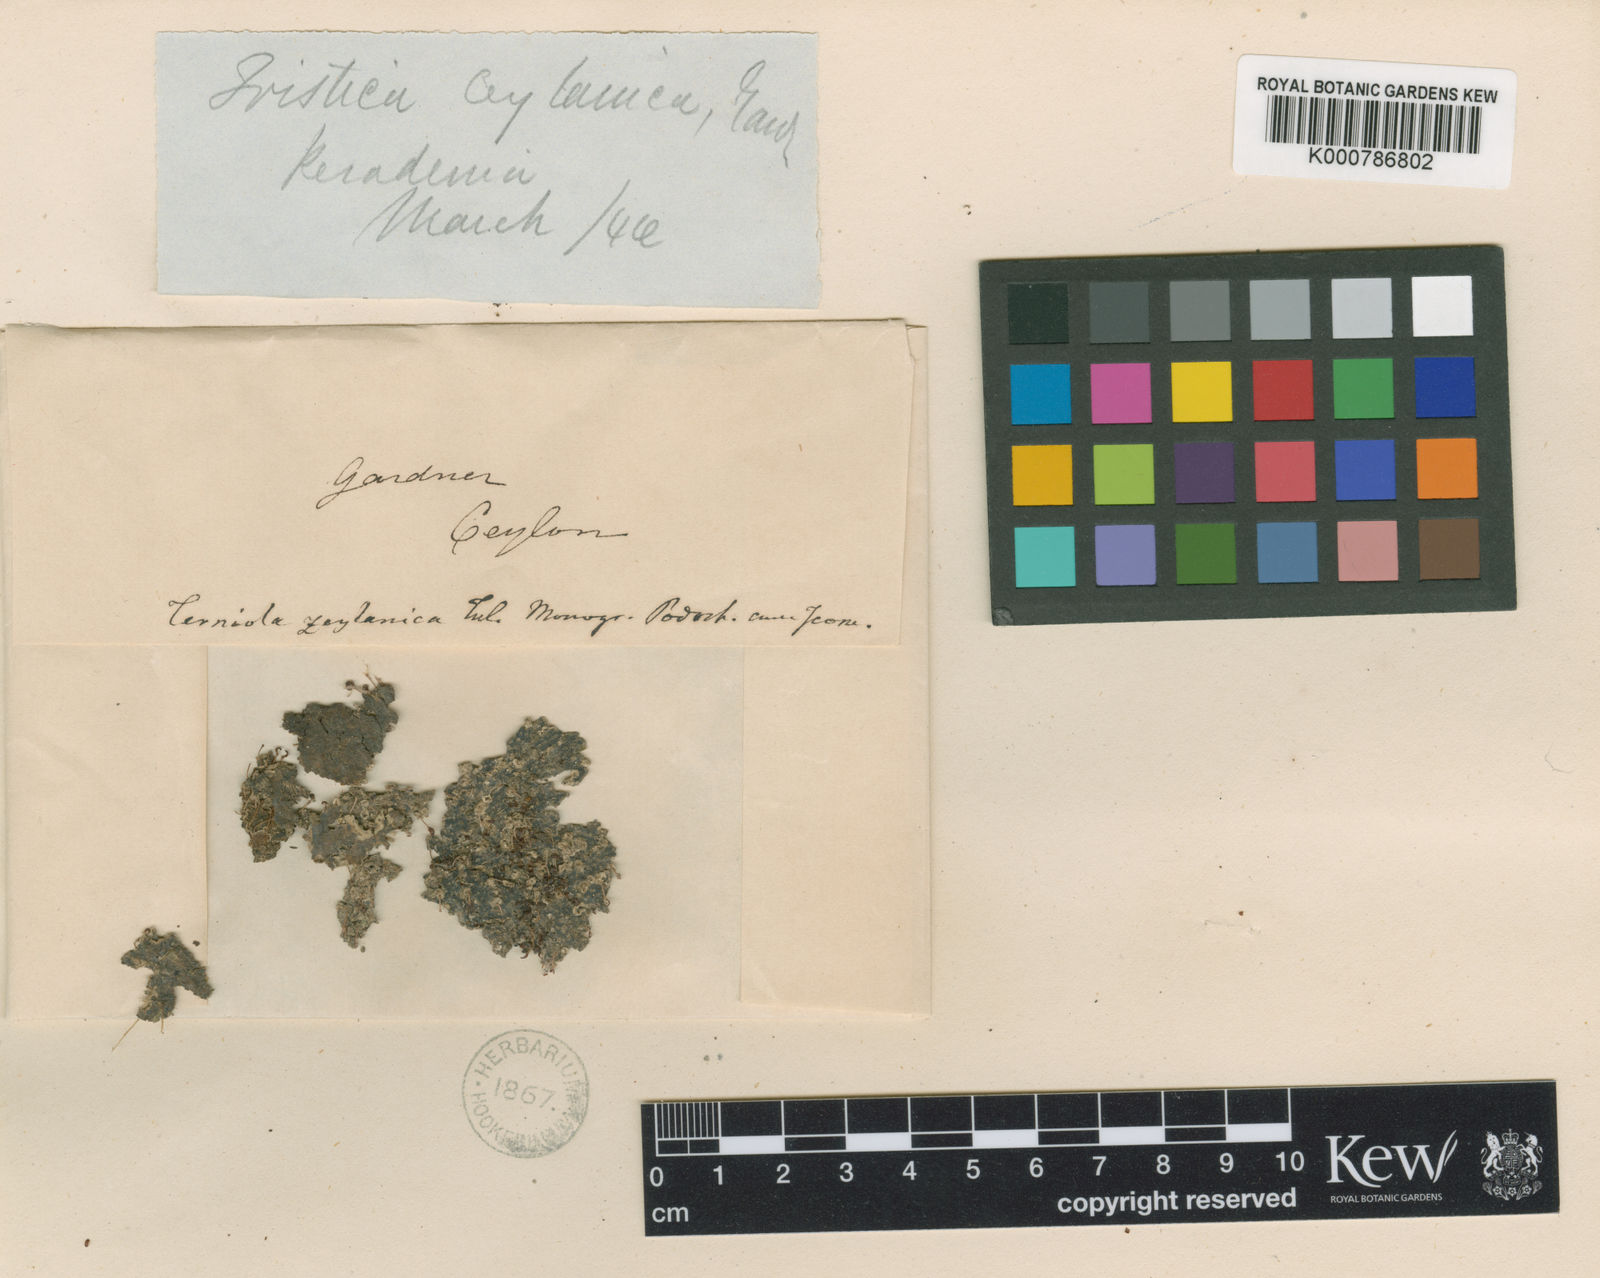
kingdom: Plantae
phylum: Tracheophyta
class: Magnoliopsida
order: Malpighiales
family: Podostemaceae
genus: Dalzellia
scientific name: Dalzellia ceylanica
